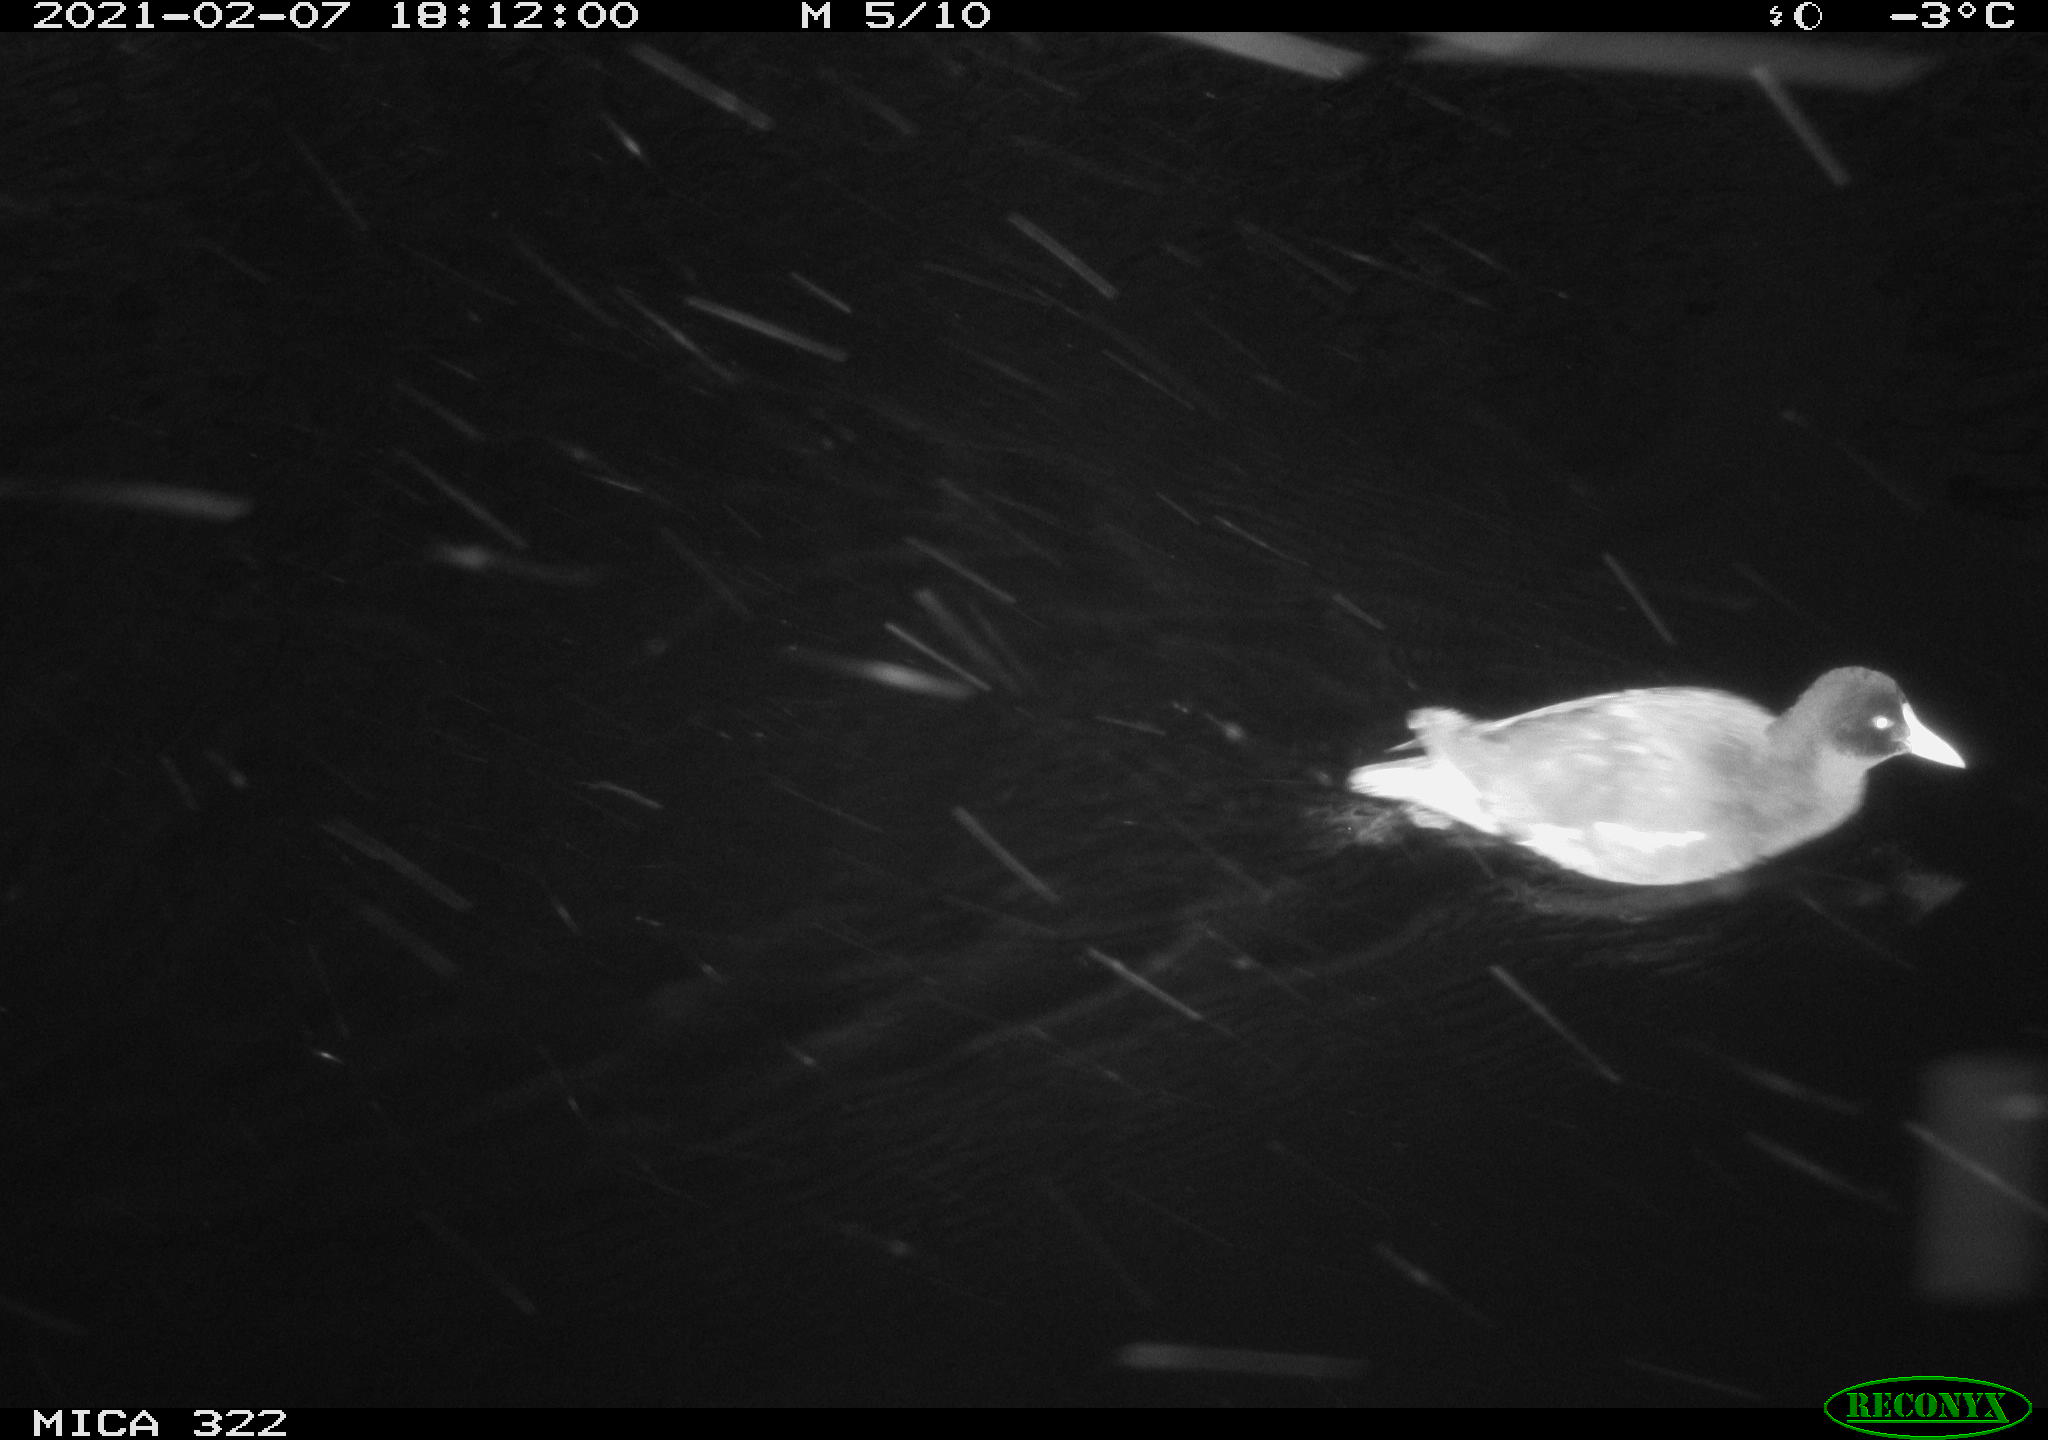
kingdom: Animalia
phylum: Chordata
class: Aves
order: Gruiformes
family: Rallidae
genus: Gallinula
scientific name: Gallinula chloropus
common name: Common moorhen
